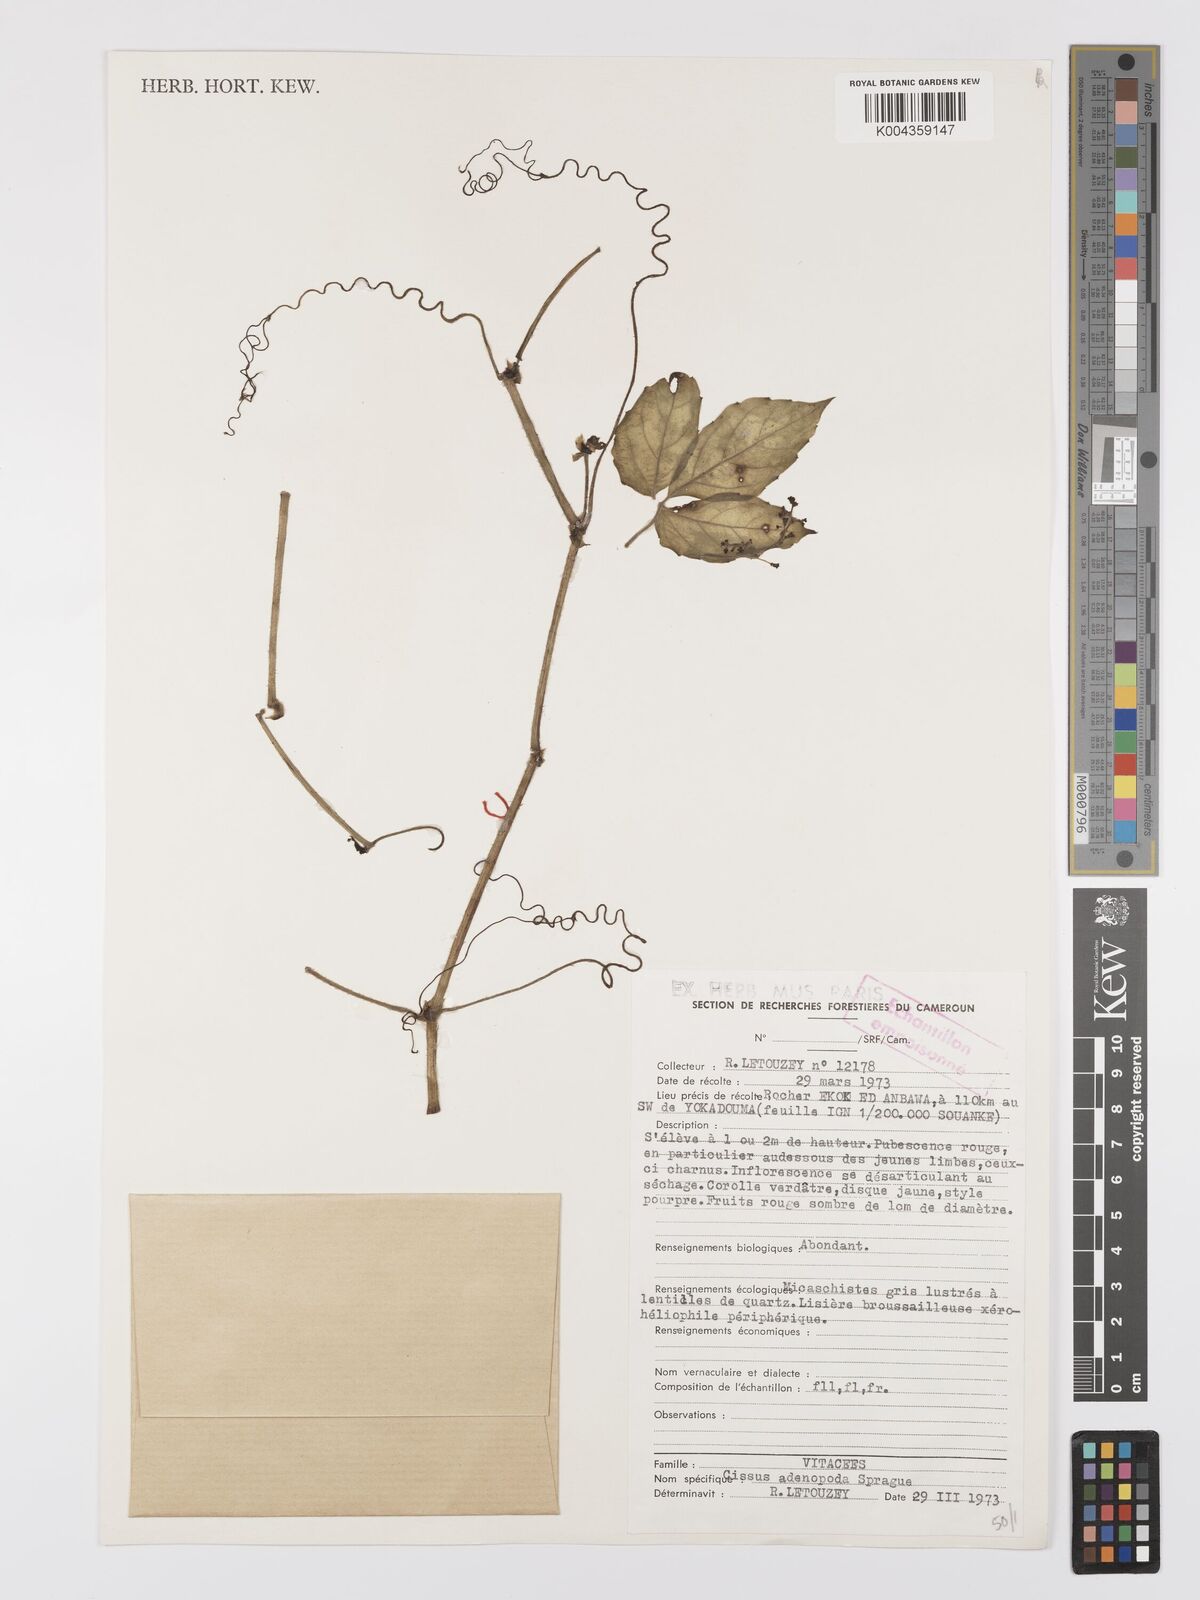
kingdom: Plantae
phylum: Tracheophyta
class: Magnoliopsida
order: Vitales
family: Vitaceae
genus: Cyphostemma
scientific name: Cyphostemma adenopodum
